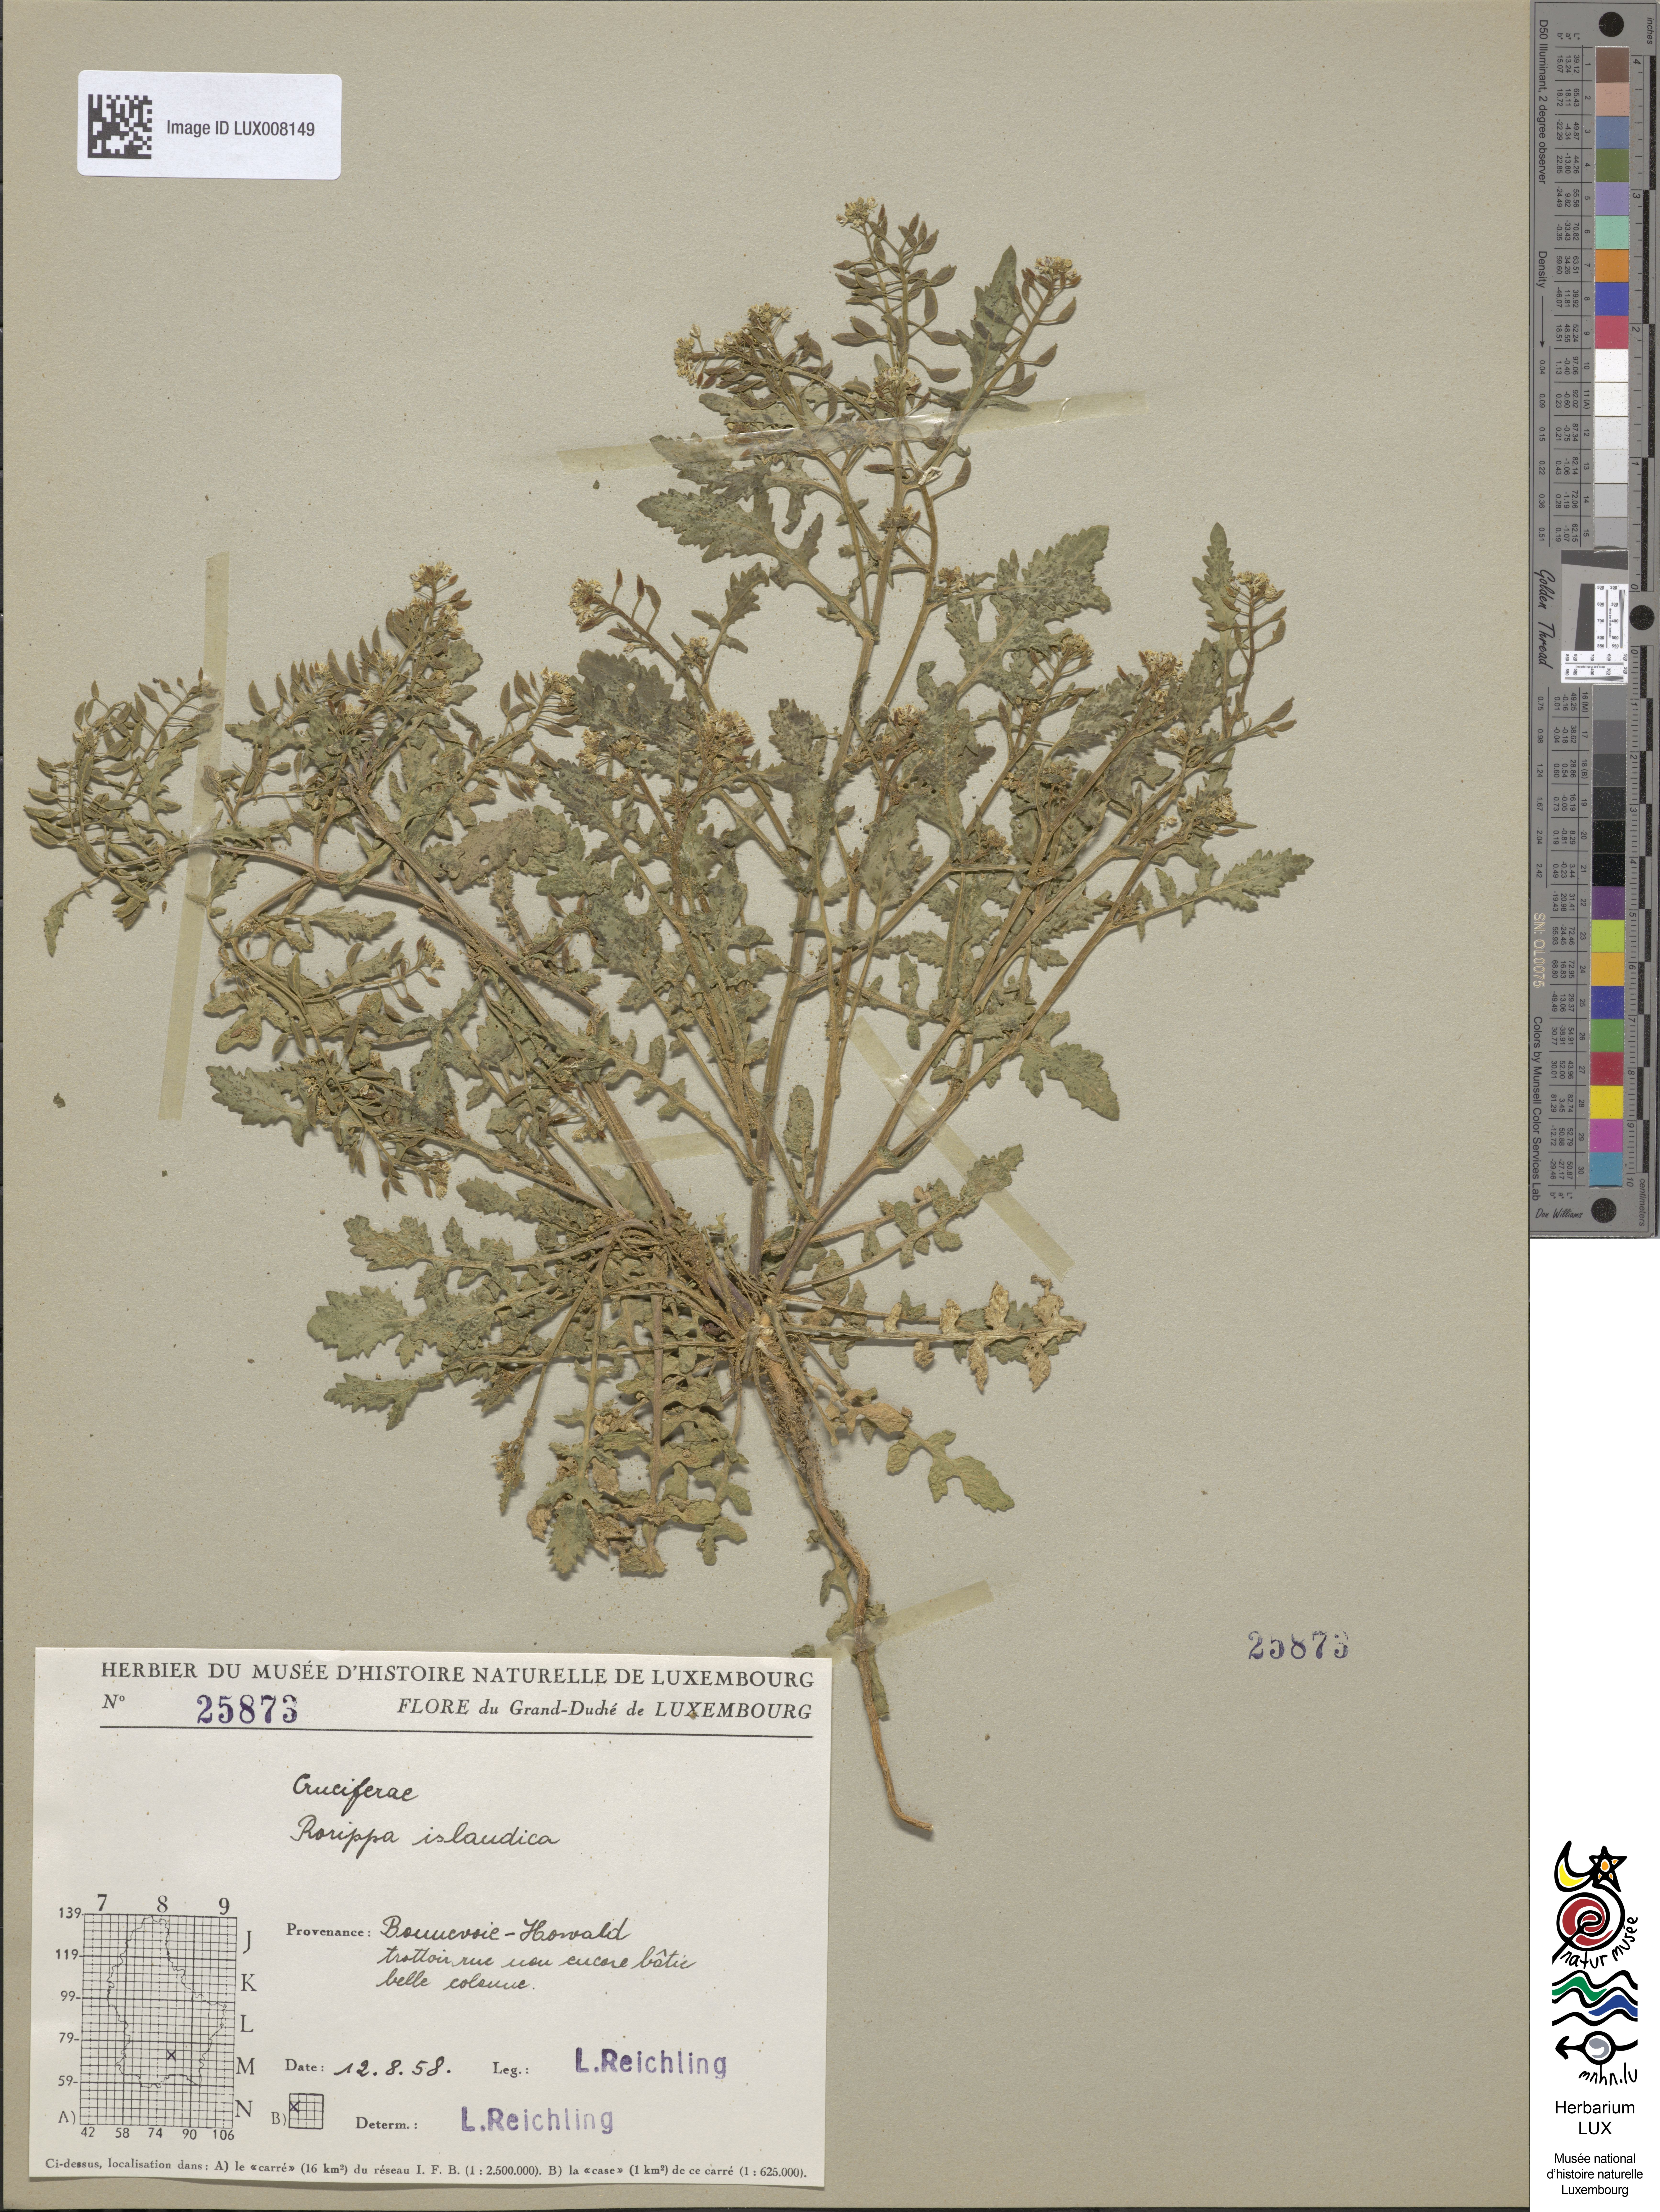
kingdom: Plantae
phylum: Tracheophyta
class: Magnoliopsida
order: Brassicales
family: Brassicaceae
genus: Rorippa
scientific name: Rorippa islandica
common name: Marsh cress
